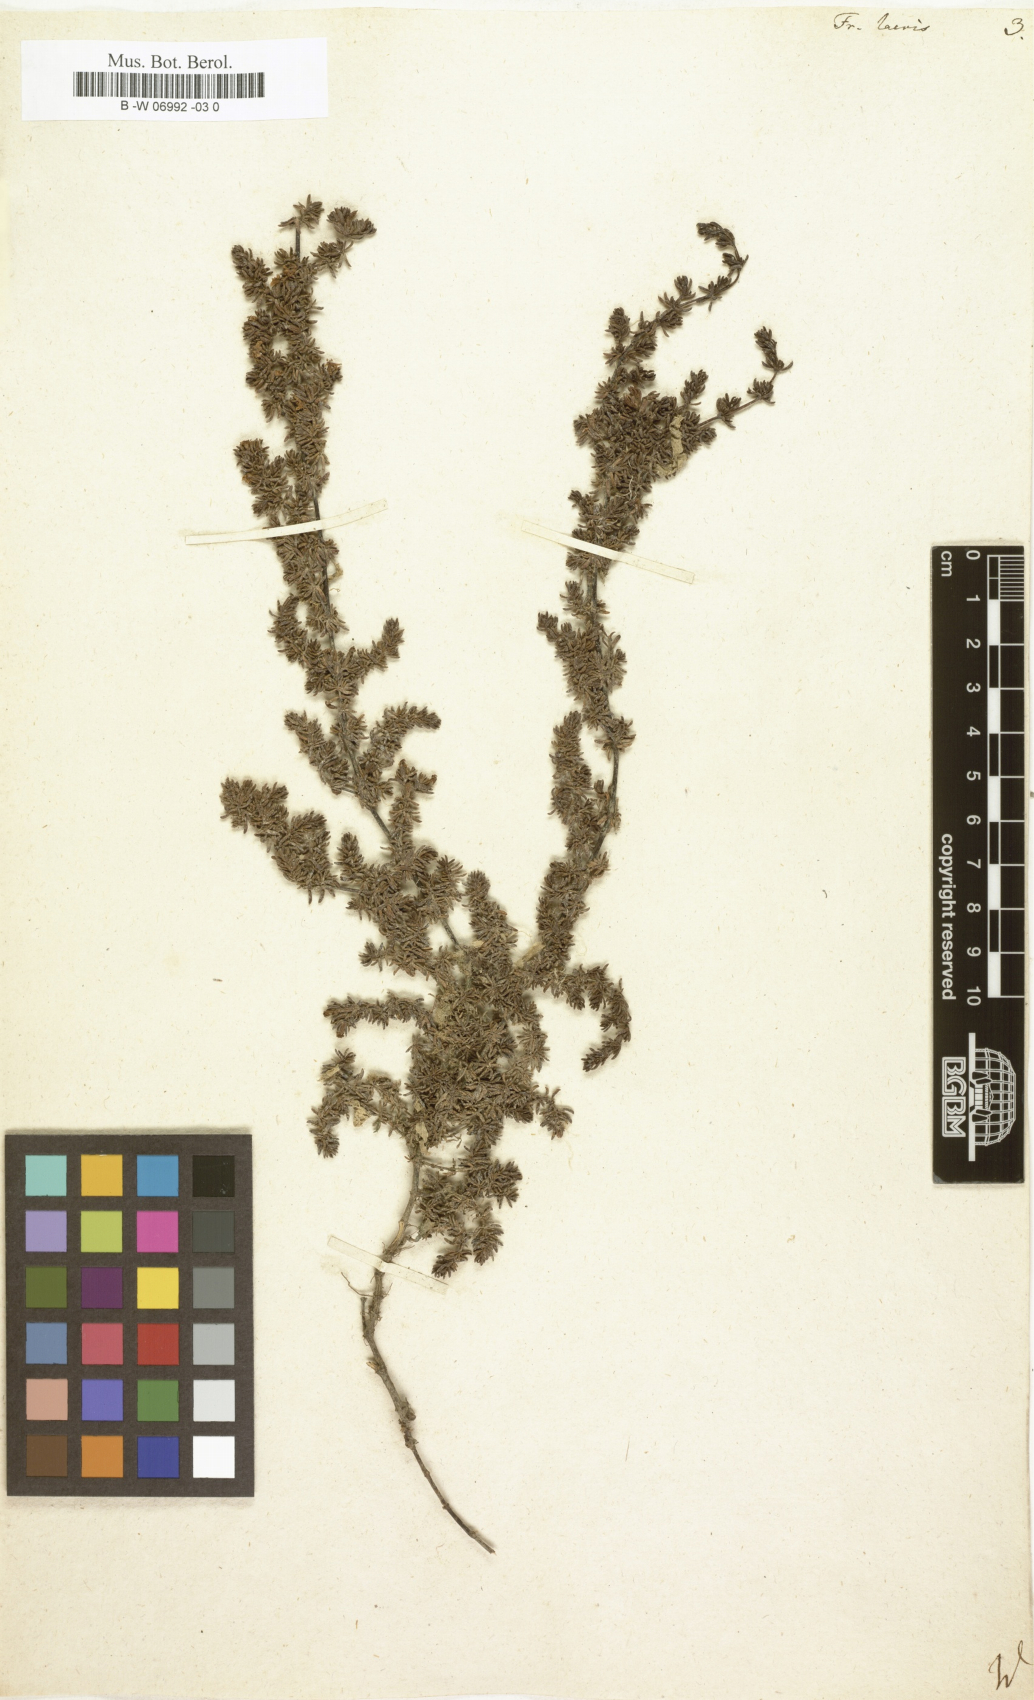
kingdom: Plantae
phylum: Tracheophyta
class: Magnoliopsida
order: Caryophyllales
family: Frankeniaceae
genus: Frankenia
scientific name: Frankenia laevis
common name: Sea-heath
